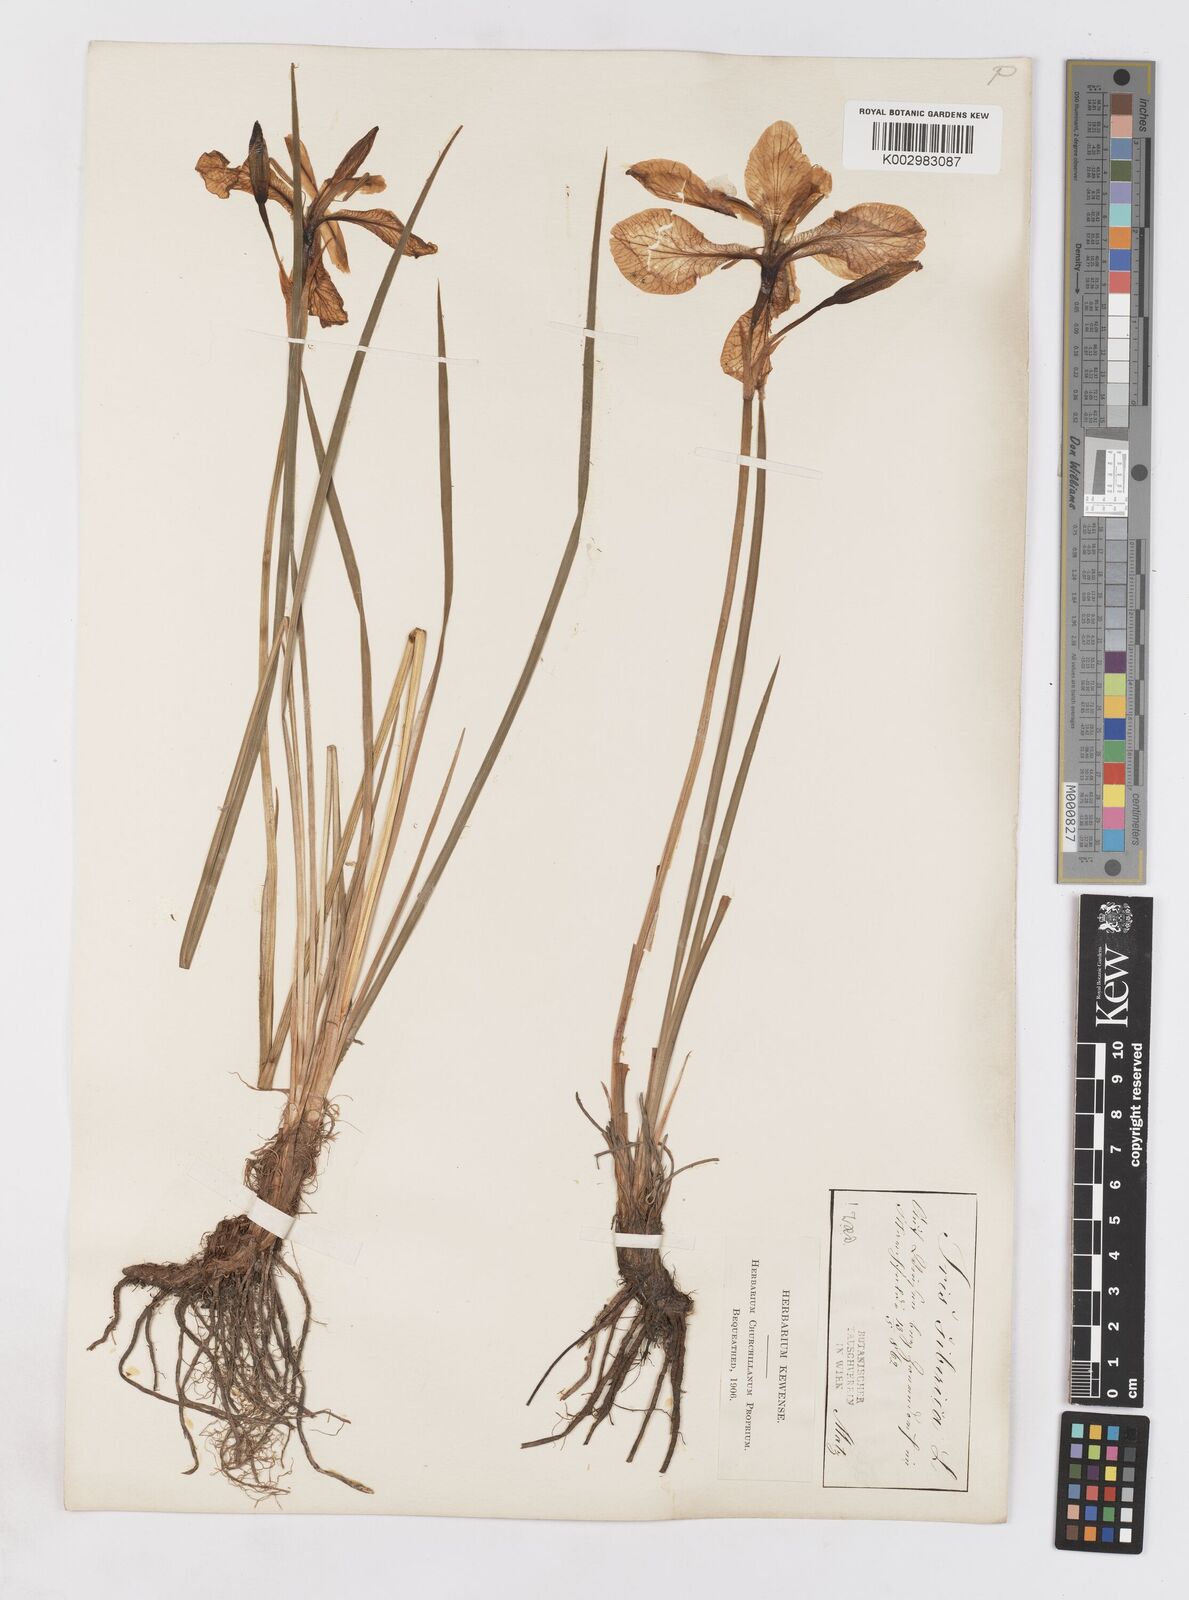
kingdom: Plantae
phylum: Tracheophyta
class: Liliopsida
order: Asparagales
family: Iridaceae
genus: Iris
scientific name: Iris sibirica
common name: Siberian iris
